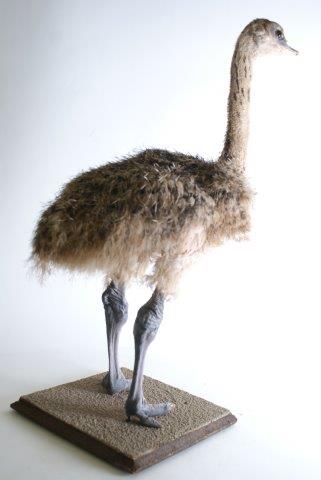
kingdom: Animalia
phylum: Chordata
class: Aves
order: Struthioniformes
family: Struthionidae
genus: Struthio
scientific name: Struthio camelus
